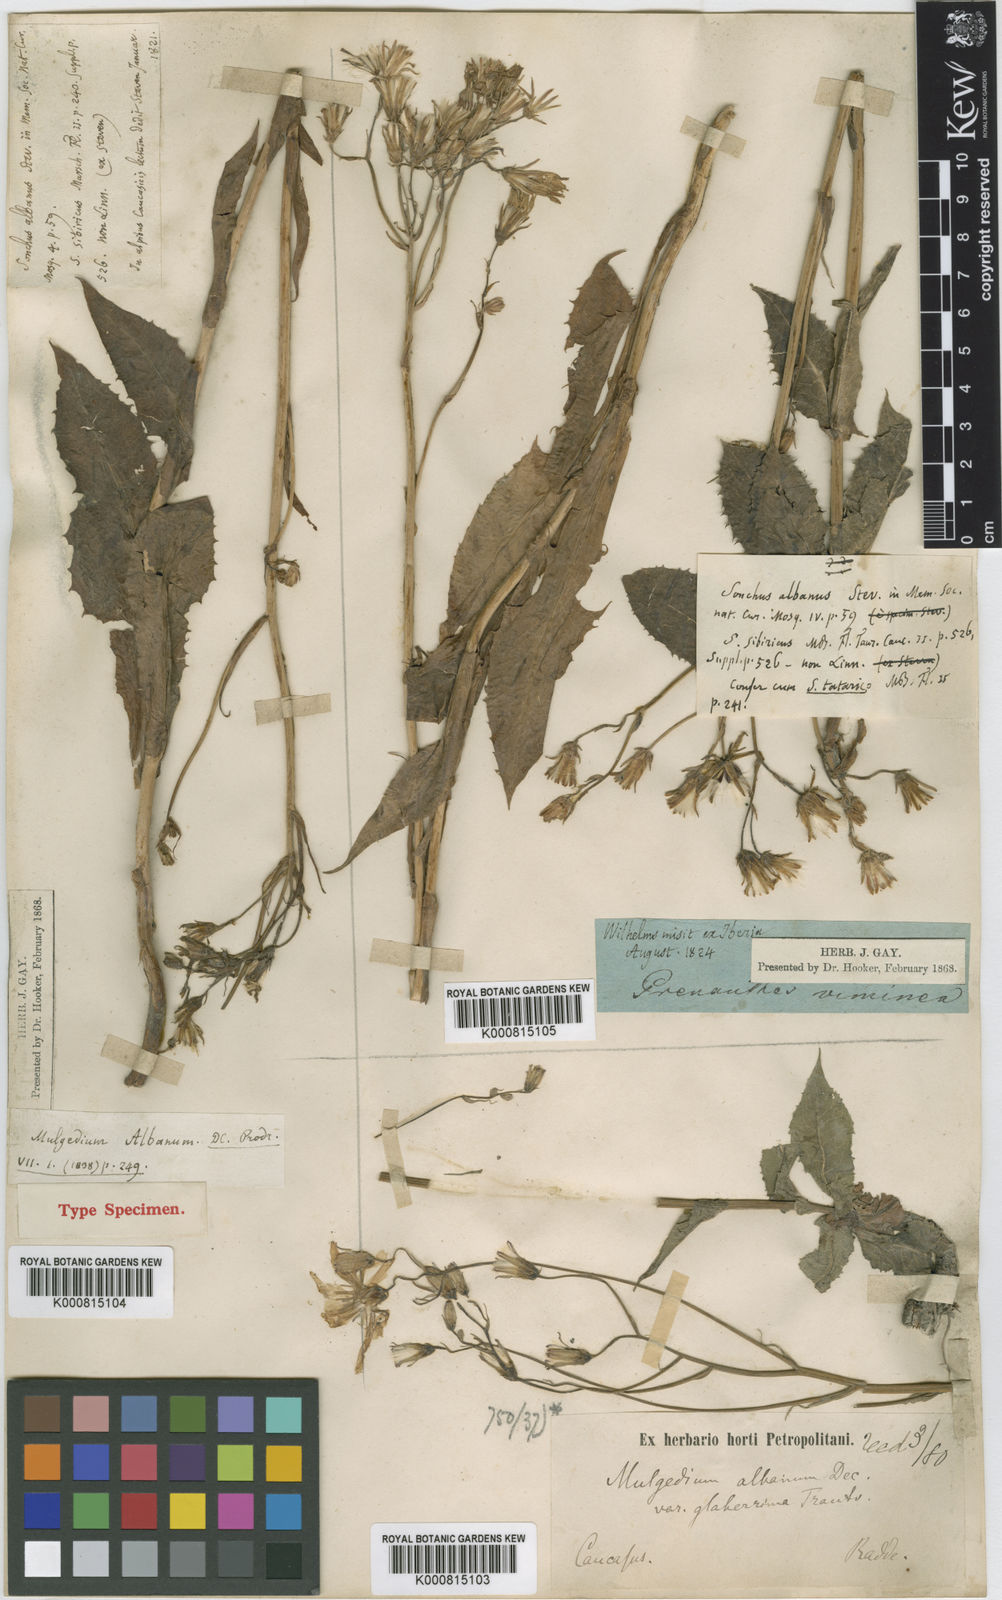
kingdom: Plantae
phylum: Tracheophyta
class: Magnoliopsida
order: Asterales
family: Asteraceae
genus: Lactuca
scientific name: Lactuca racemosa
